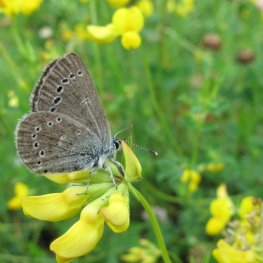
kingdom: Animalia
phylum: Arthropoda
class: Insecta
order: Lepidoptera
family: Lycaenidae
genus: Glaucopsyche
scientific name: Glaucopsyche lygdamus
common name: Silvery Blue
